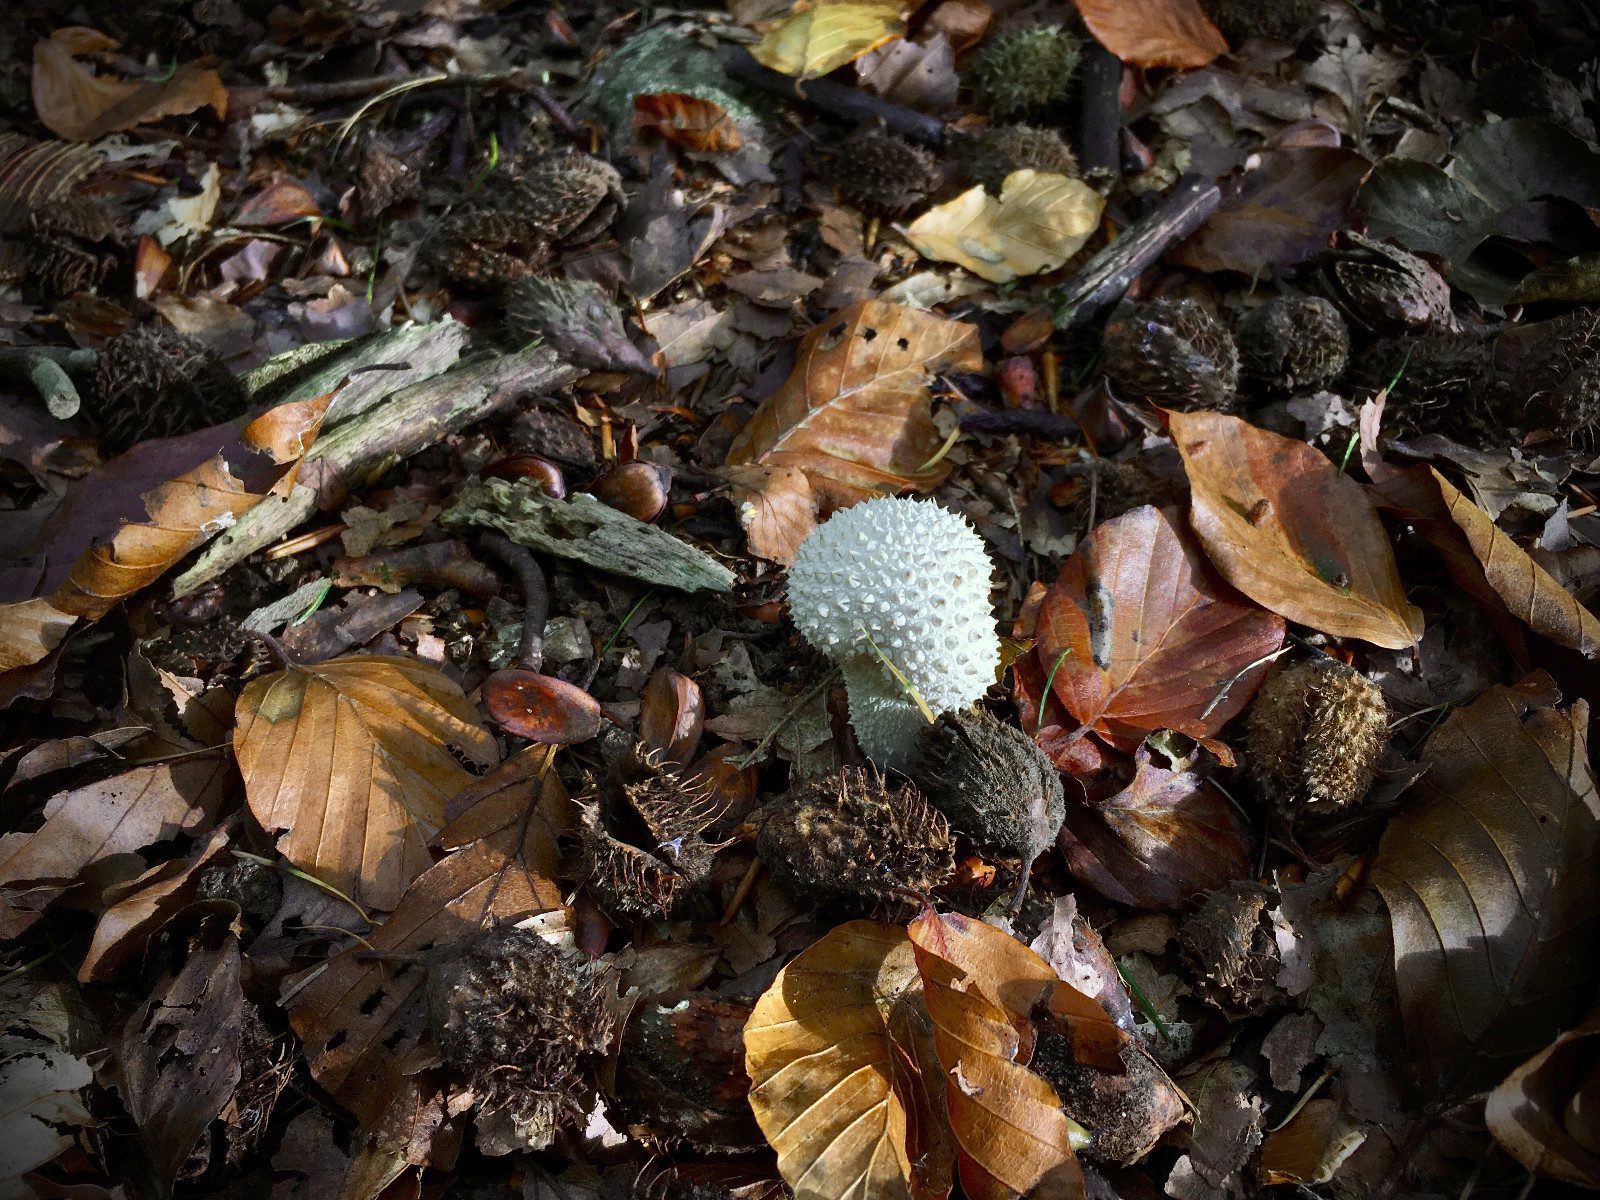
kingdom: Fungi
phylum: Basidiomycota
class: Agaricomycetes
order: Agaricales
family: Hydnangiaceae
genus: Laccaria
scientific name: Laccaria amethystina
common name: violet ametysthat
